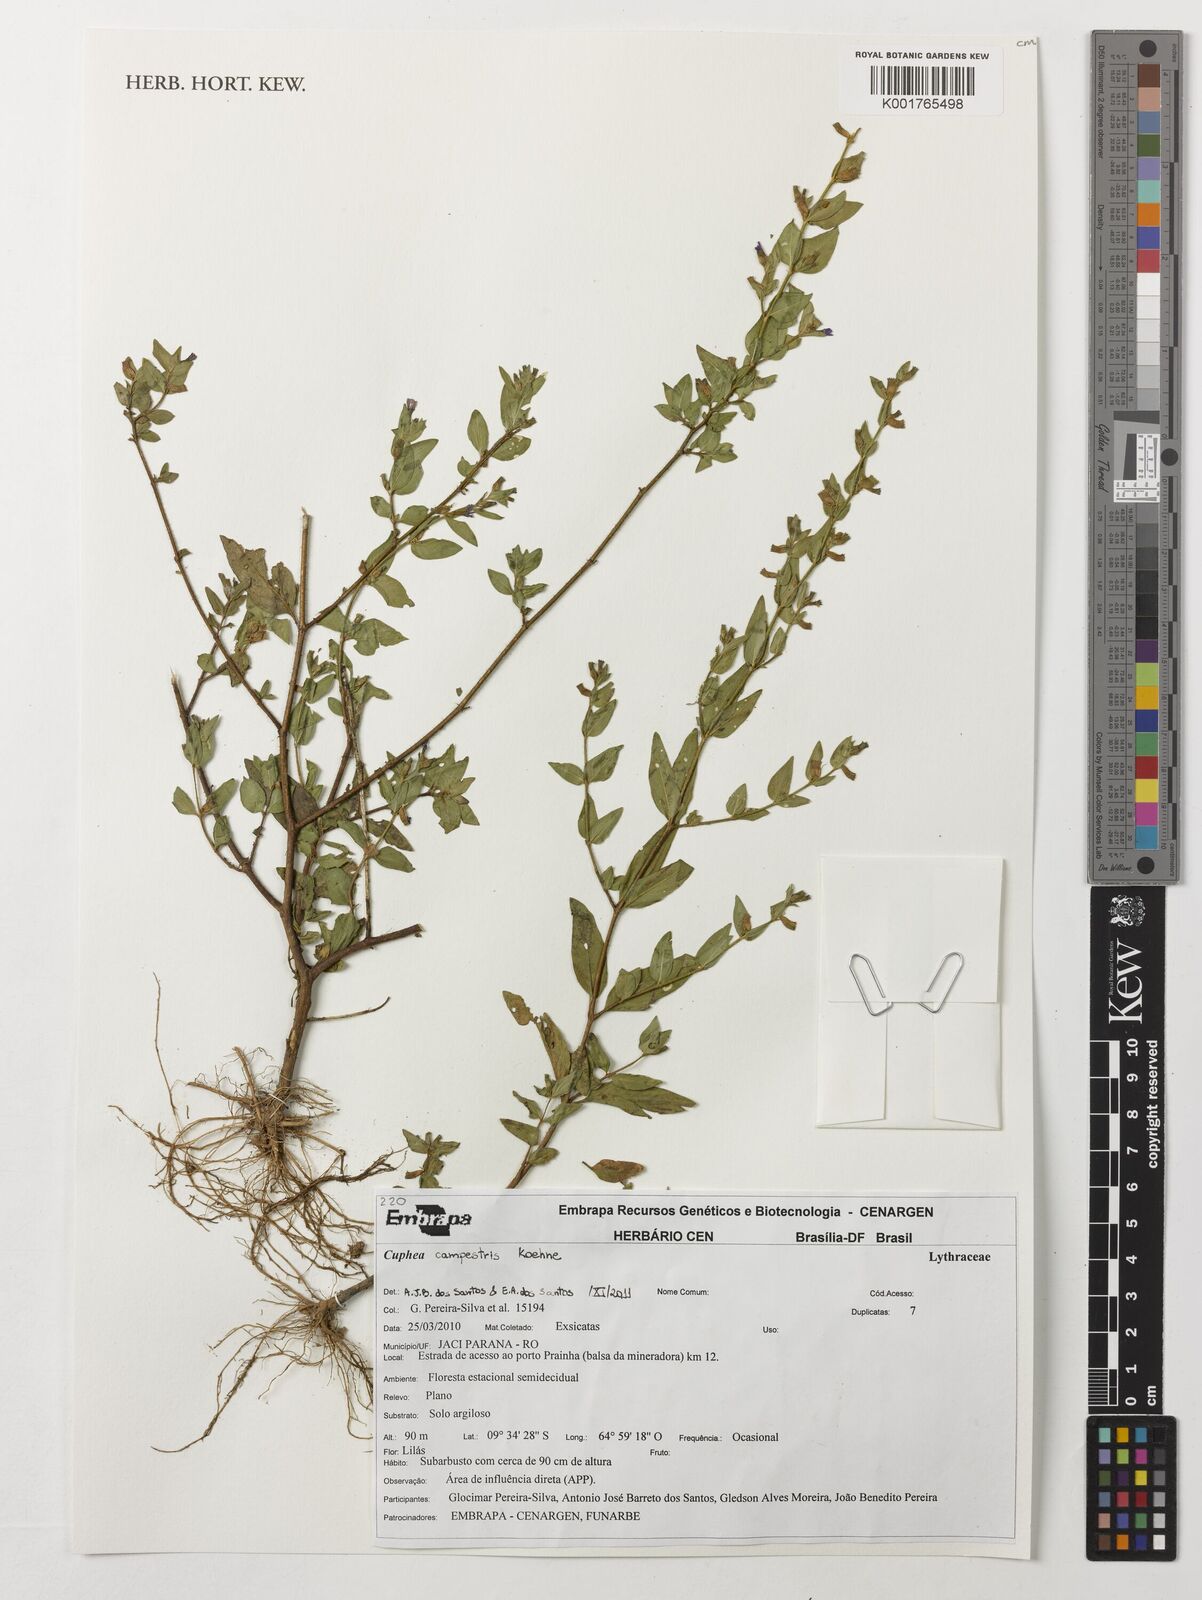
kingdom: Plantae
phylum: Tracheophyta
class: Magnoliopsida
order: Myrtales
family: Lythraceae
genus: Cuphea
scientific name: Cuphea campestris
